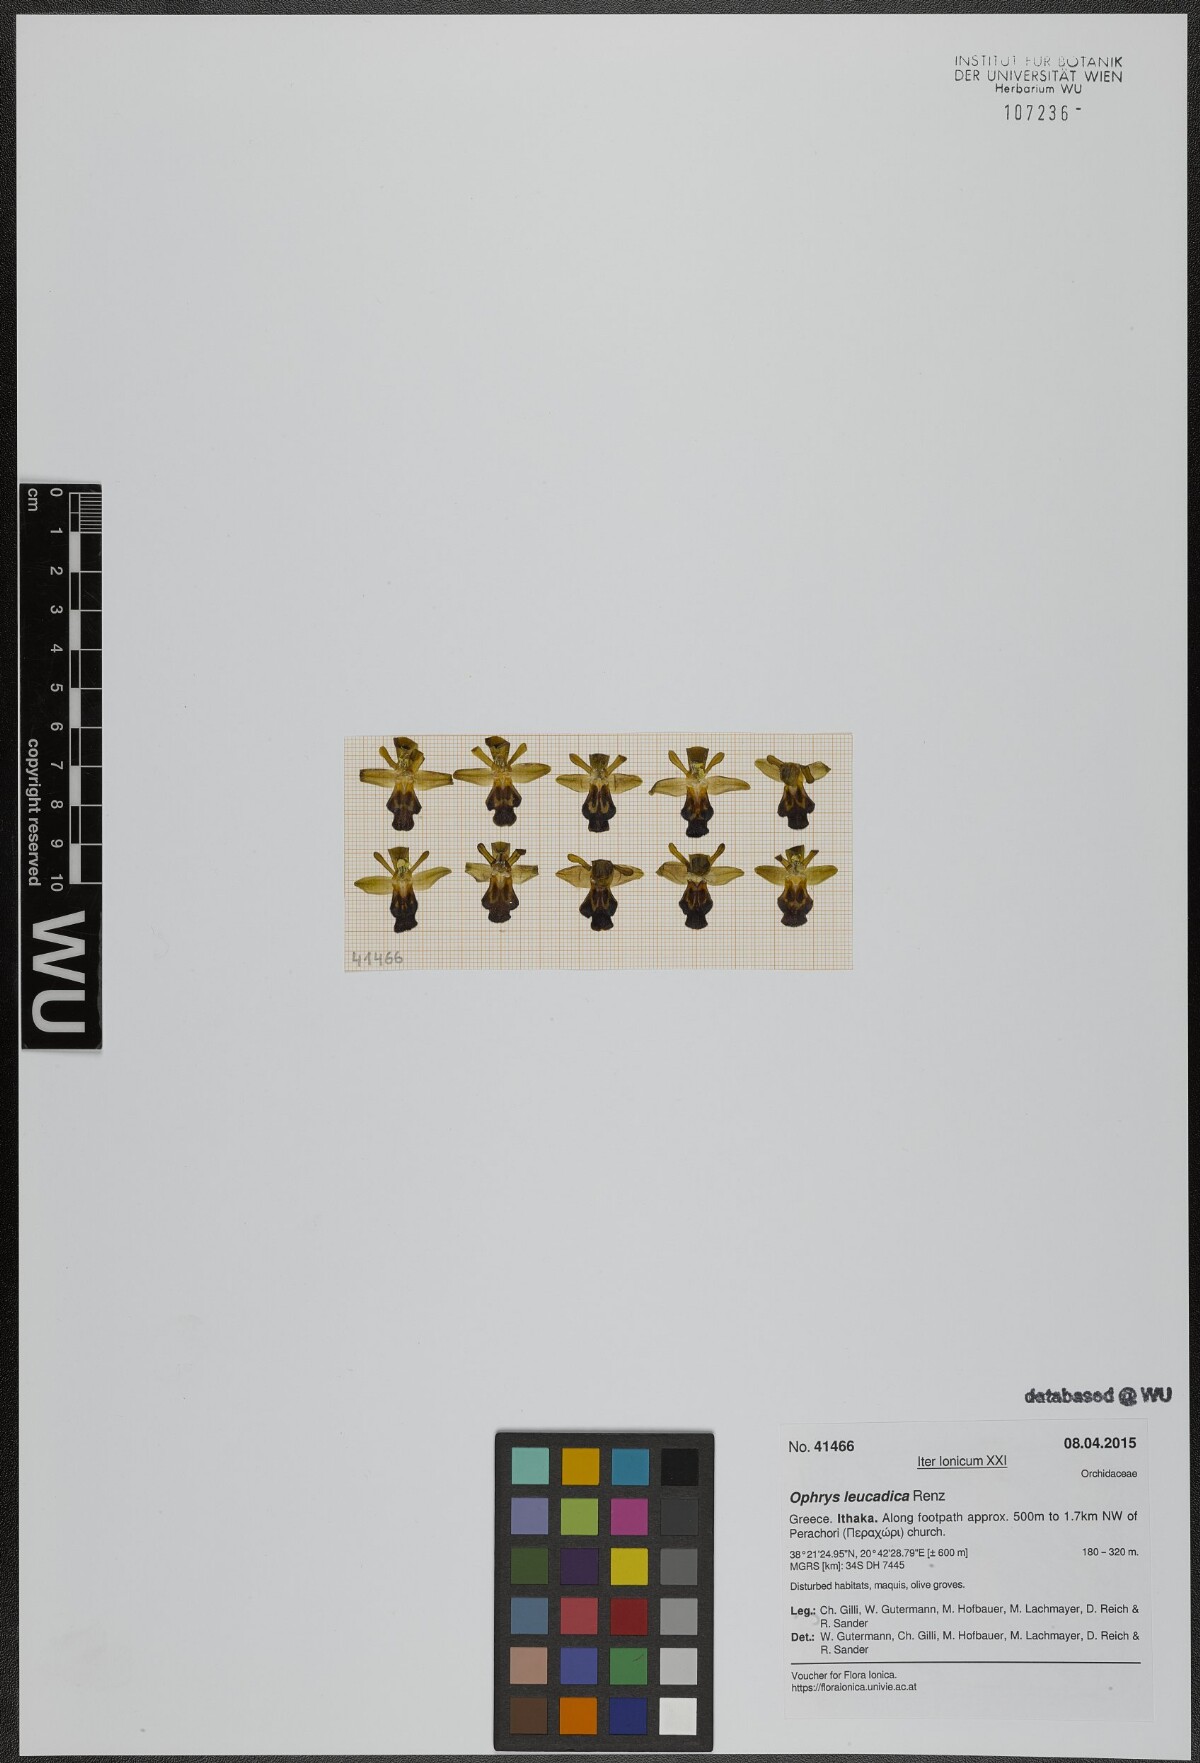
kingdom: Plantae
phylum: Tracheophyta
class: Liliopsida
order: Asparagales
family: Orchidaceae
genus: Ophrys
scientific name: Ophrys fusca
